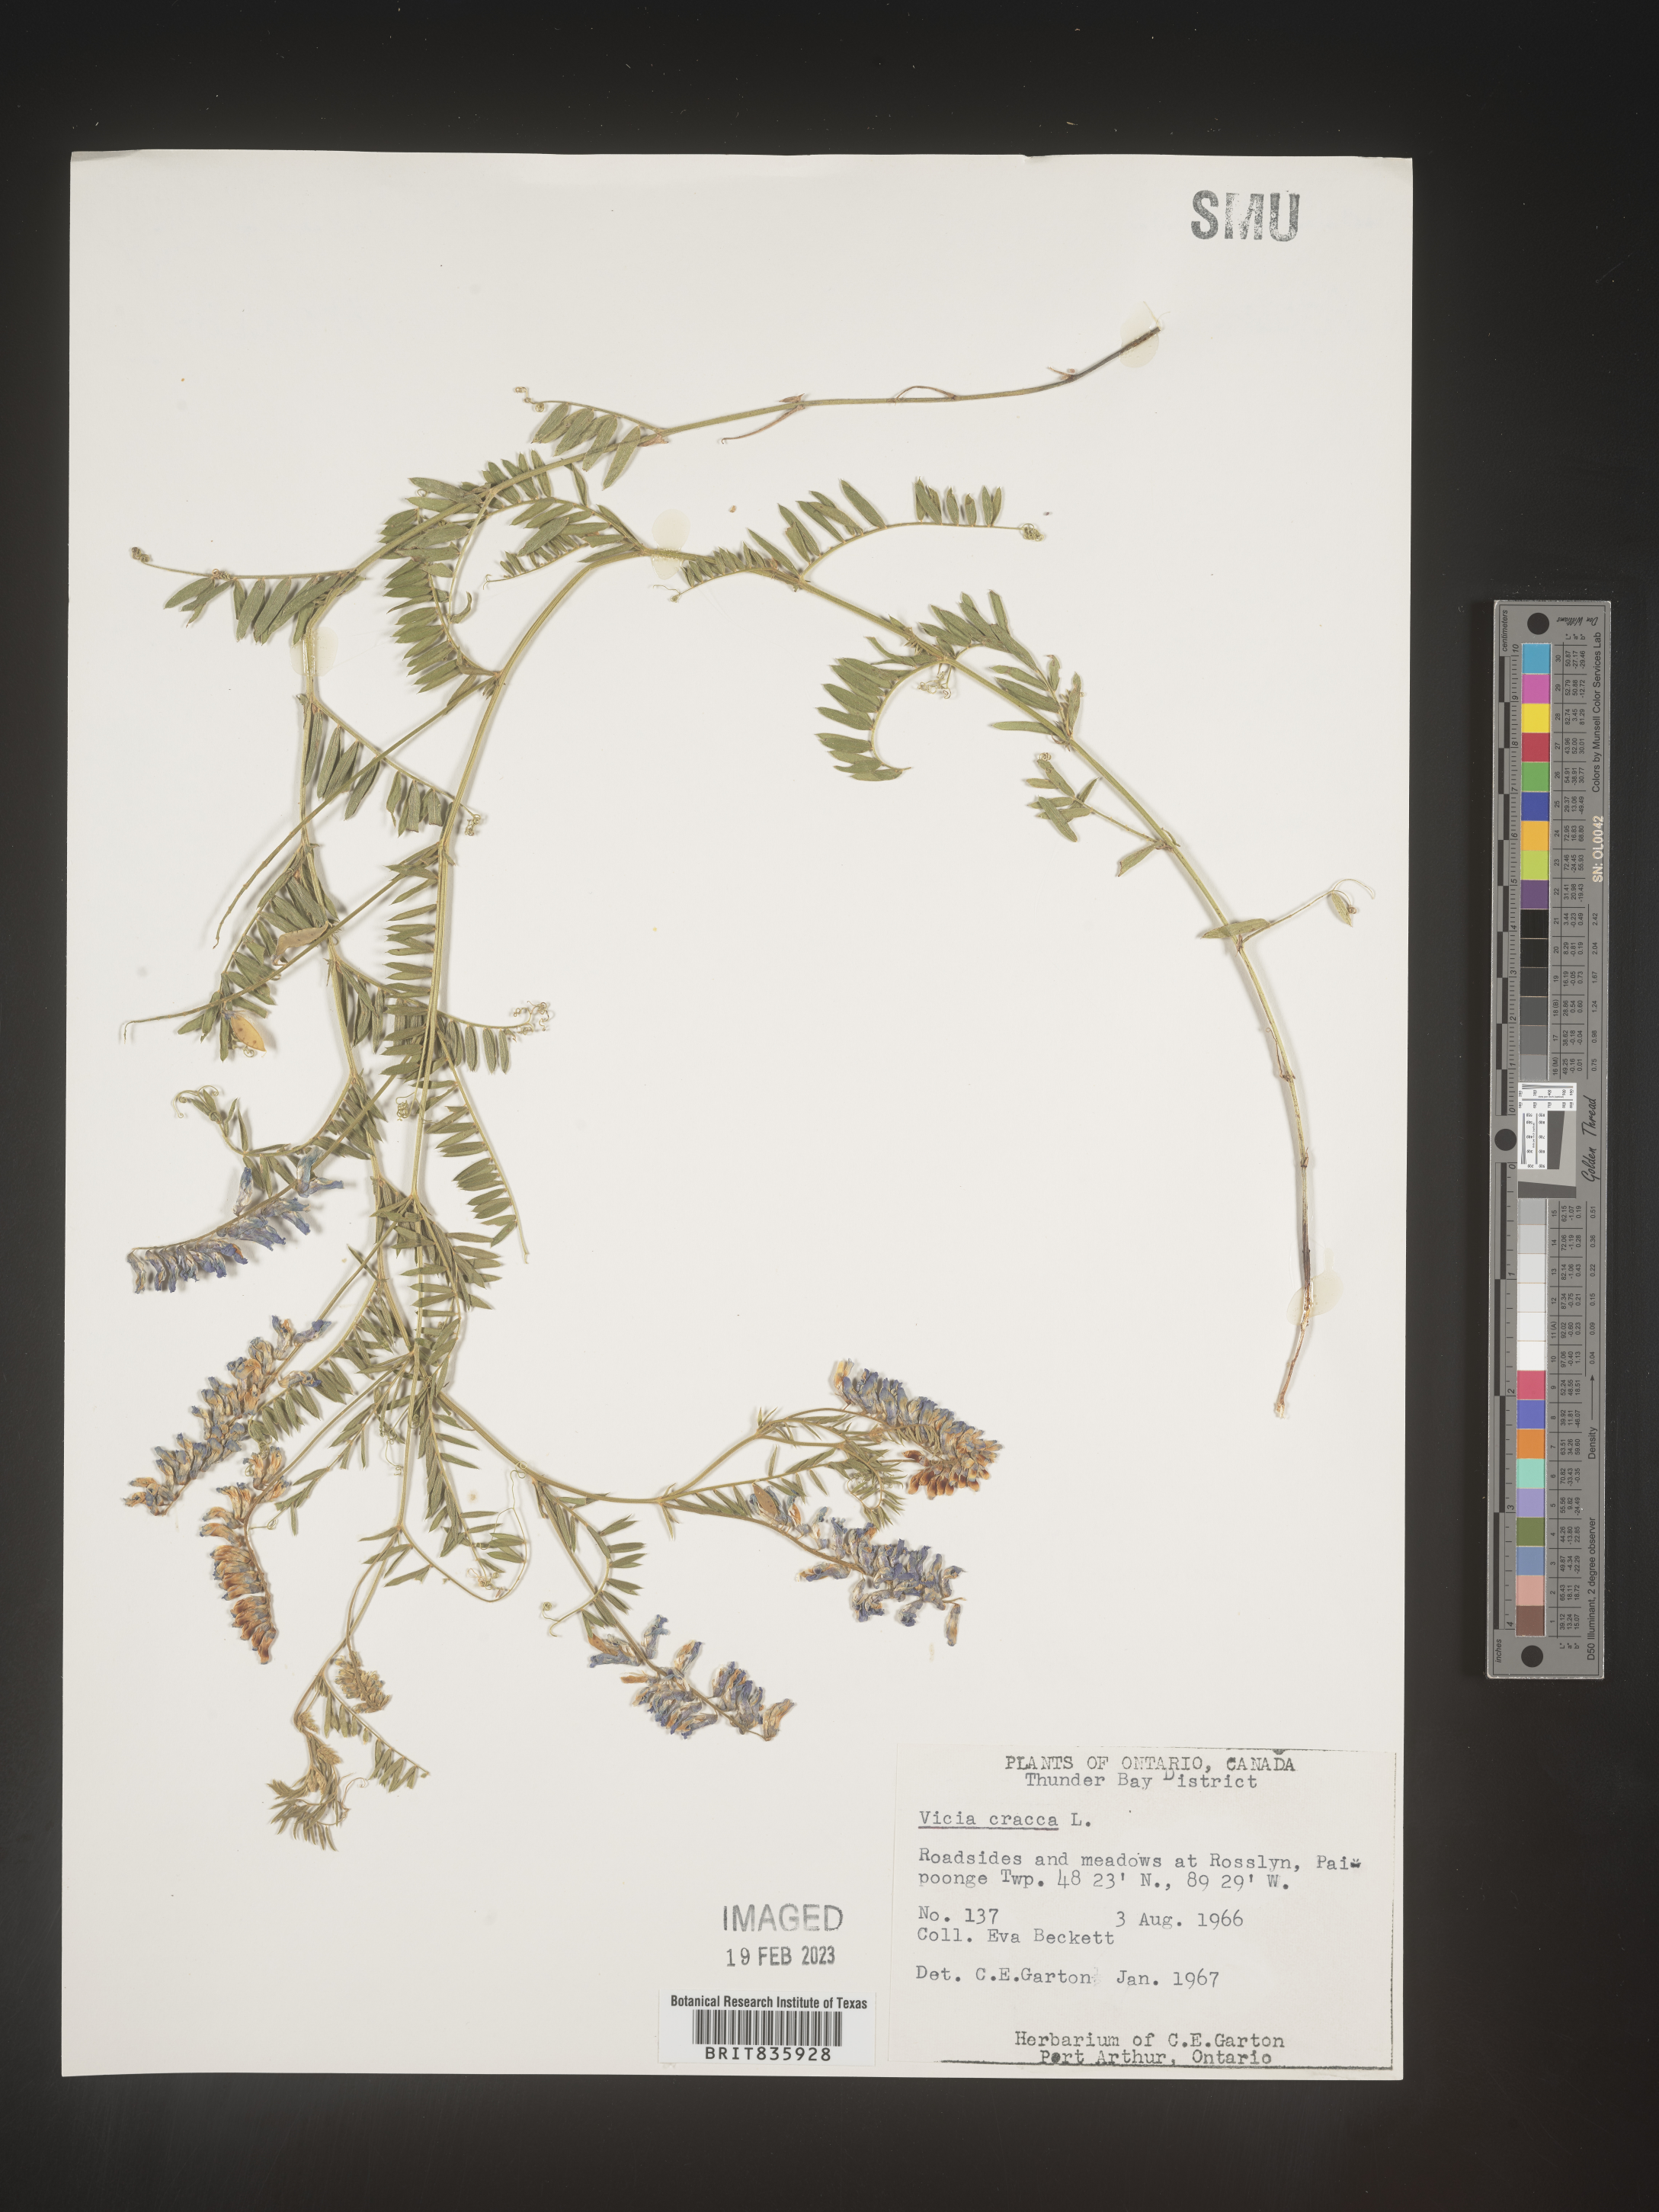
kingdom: Plantae
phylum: Tracheophyta
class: Magnoliopsida
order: Fabales
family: Fabaceae
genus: Vicia
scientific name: Vicia cracca
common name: Bird vetch
